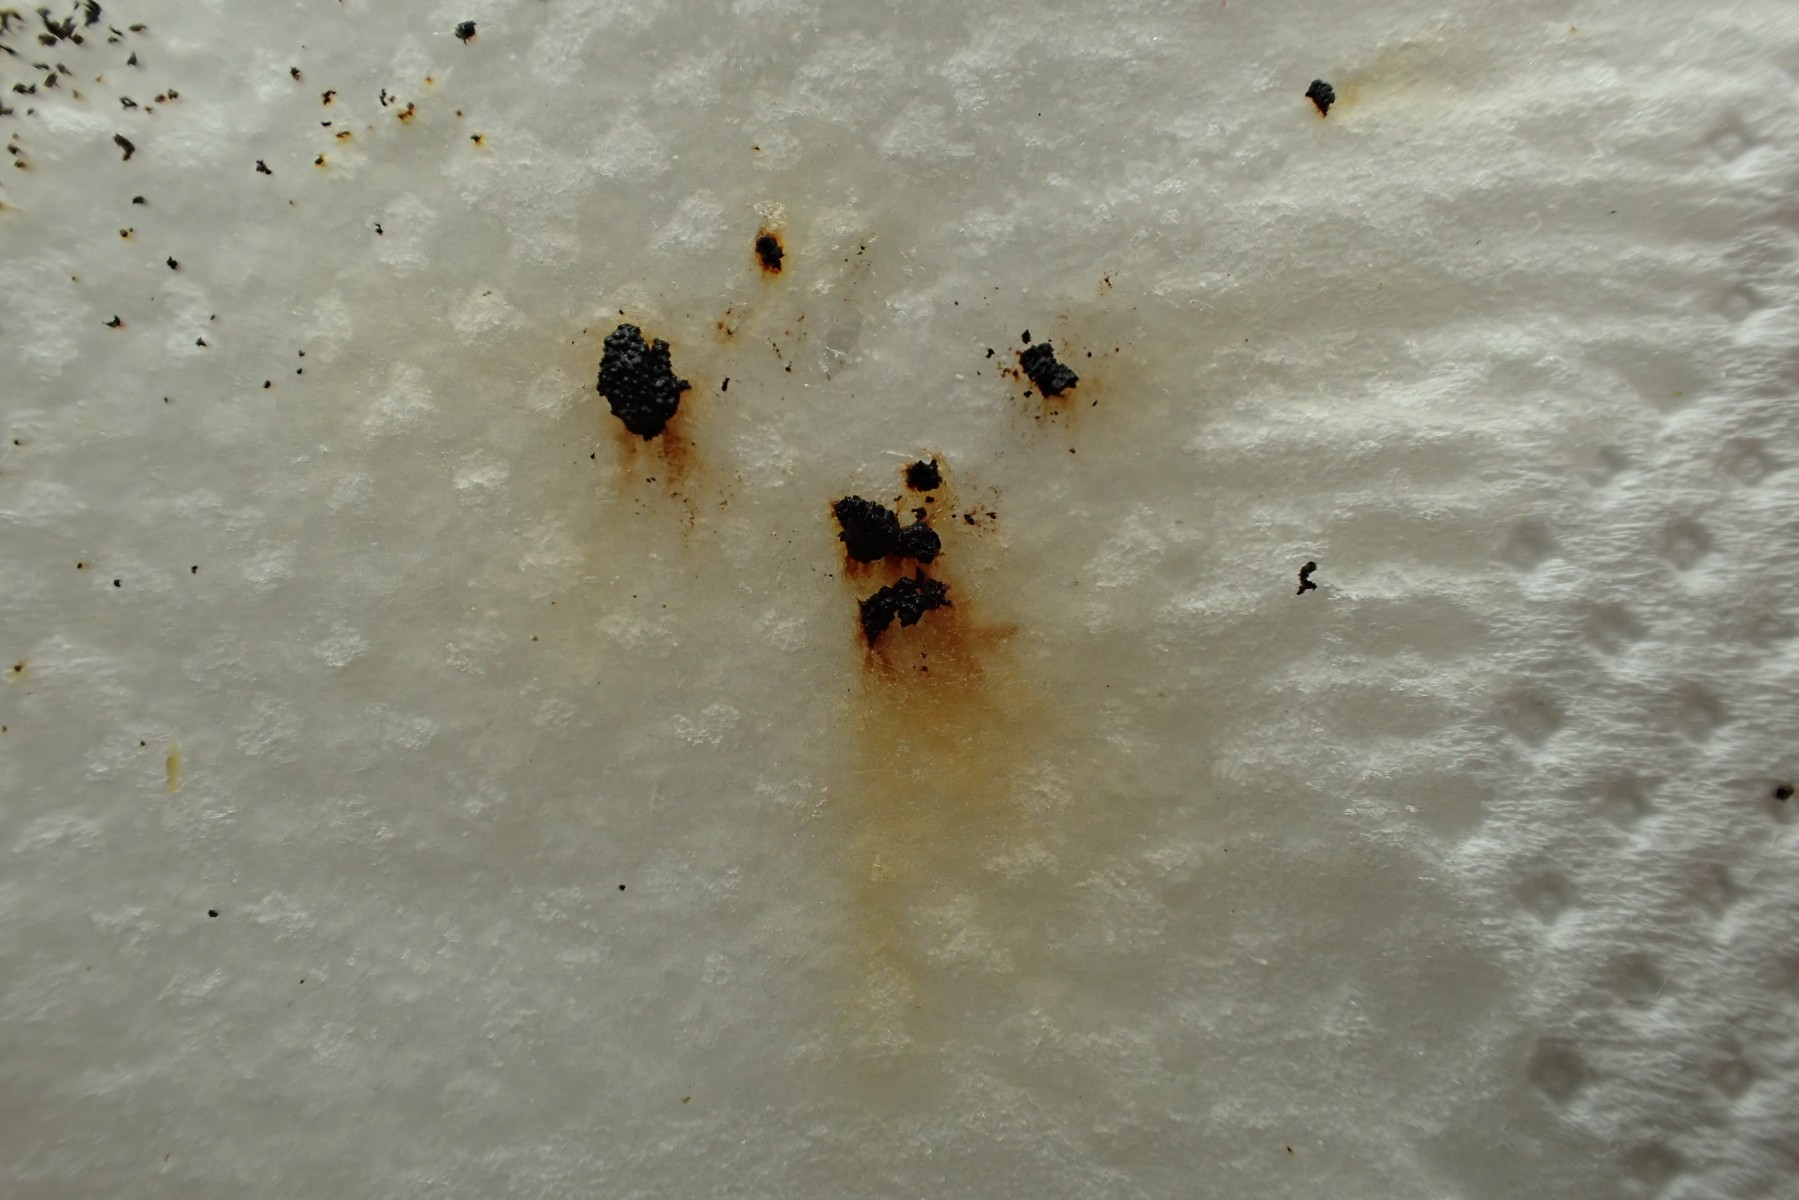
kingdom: Fungi
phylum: Ascomycota
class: Sordariomycetes
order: Xylariales
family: Hypoxylaceae
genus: Hypoxylon
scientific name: Hypoxylon howeanum
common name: halvkugleformet kulbær
